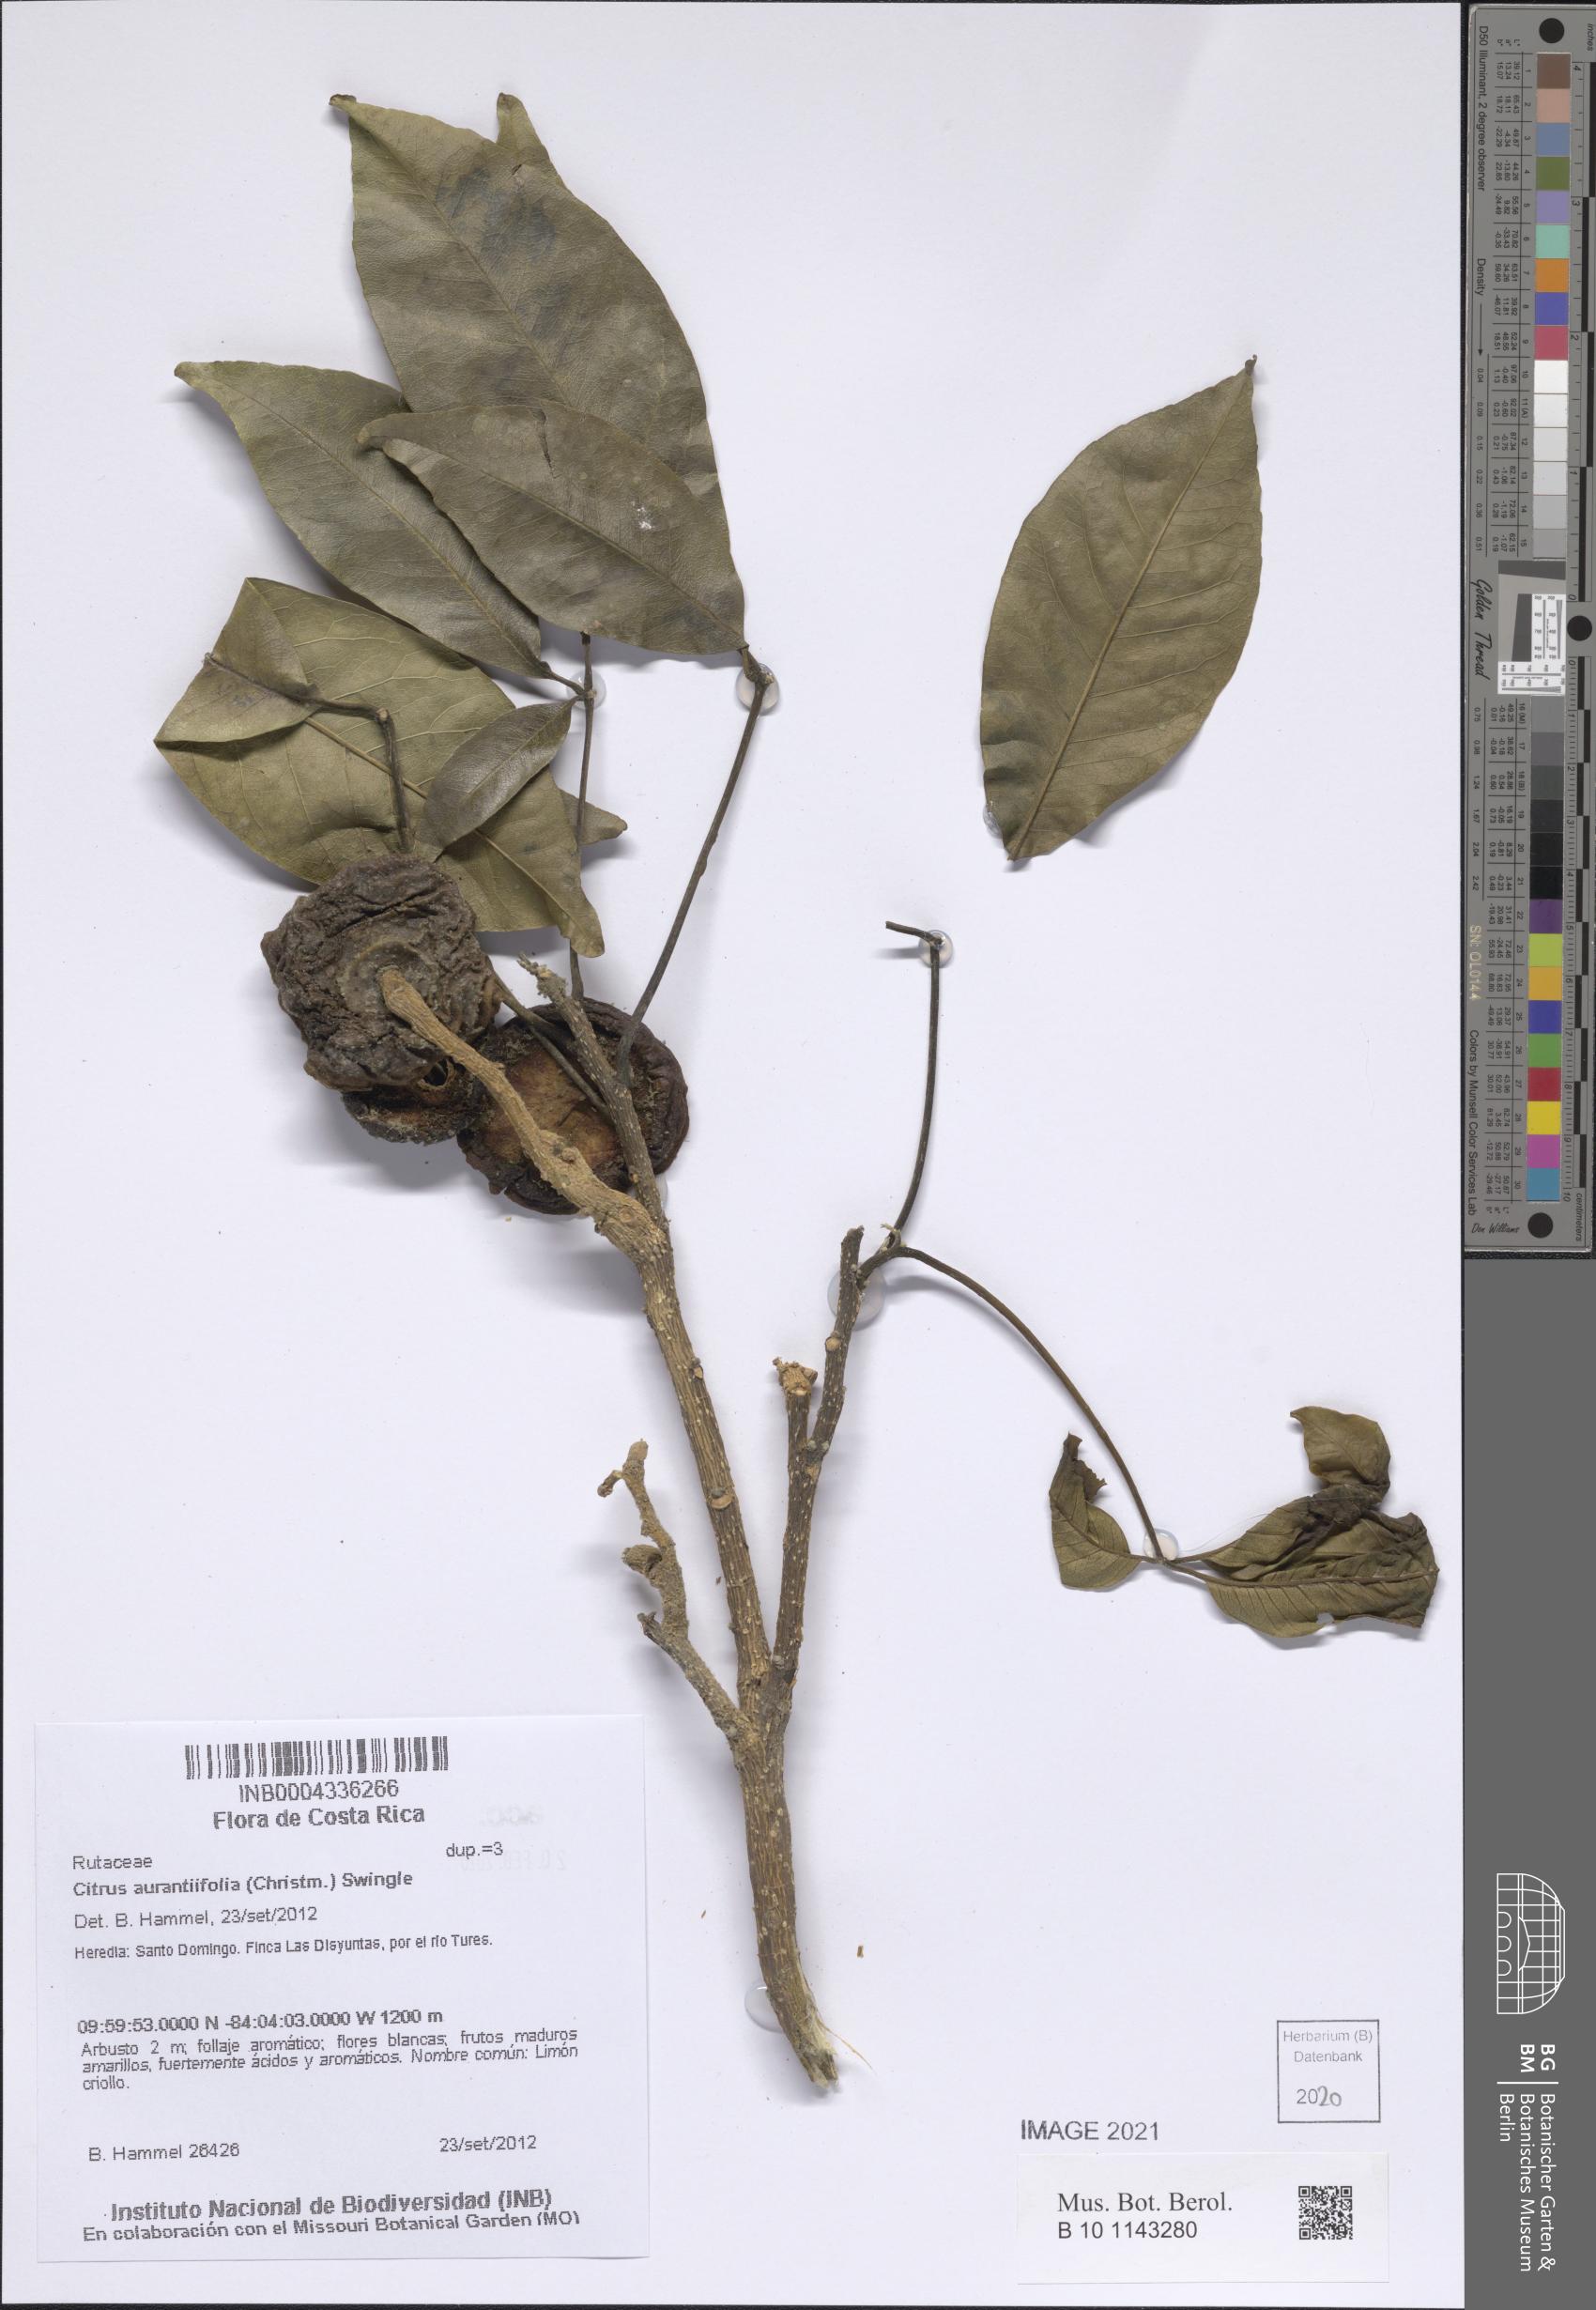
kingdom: Plantae
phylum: Tracheophyta
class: Magnoliopsida
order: Sapindales
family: Rutaceae
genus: Citrus
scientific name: Citrus aurantiifolia
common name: Key lime
